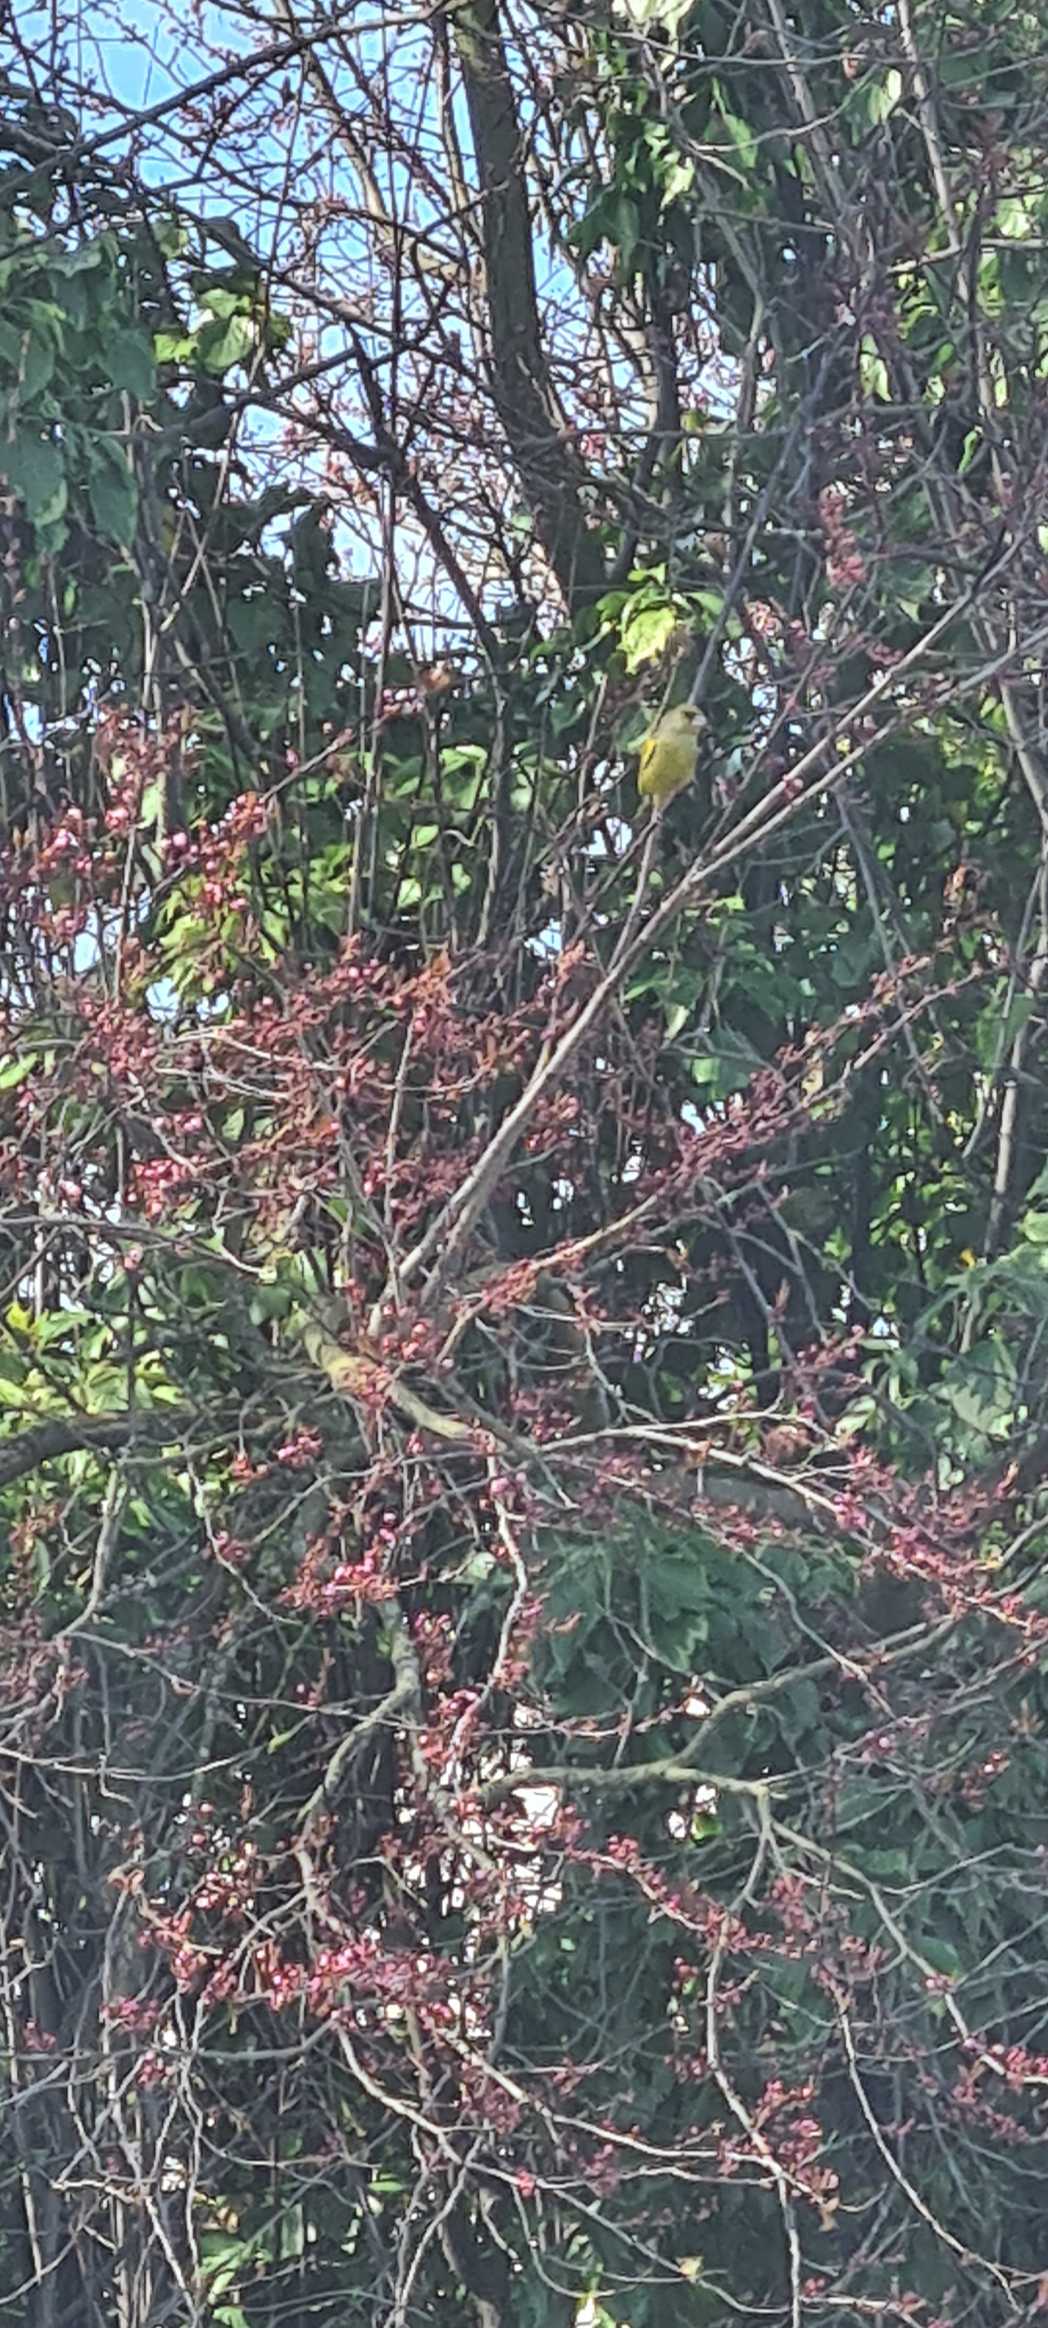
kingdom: Plantae
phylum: Tracheophyta
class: Liliopsida
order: Poales
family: Poaceae
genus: Chloris
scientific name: Chloris chloris
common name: Grønirisk
